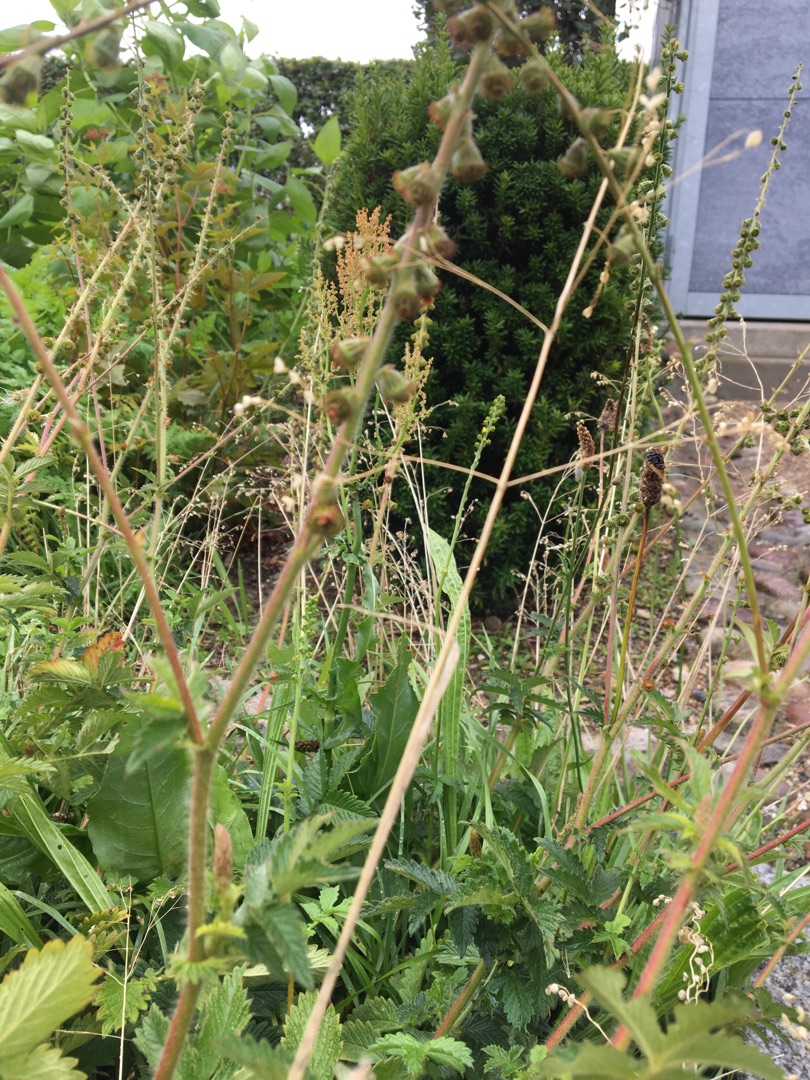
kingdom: Plantae
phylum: Tracheophyta
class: Magnoliopsida
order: Rosales
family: Rosaceae
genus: Agrimonia
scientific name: Agrimonia eupatoria
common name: Almindelig agermåne
